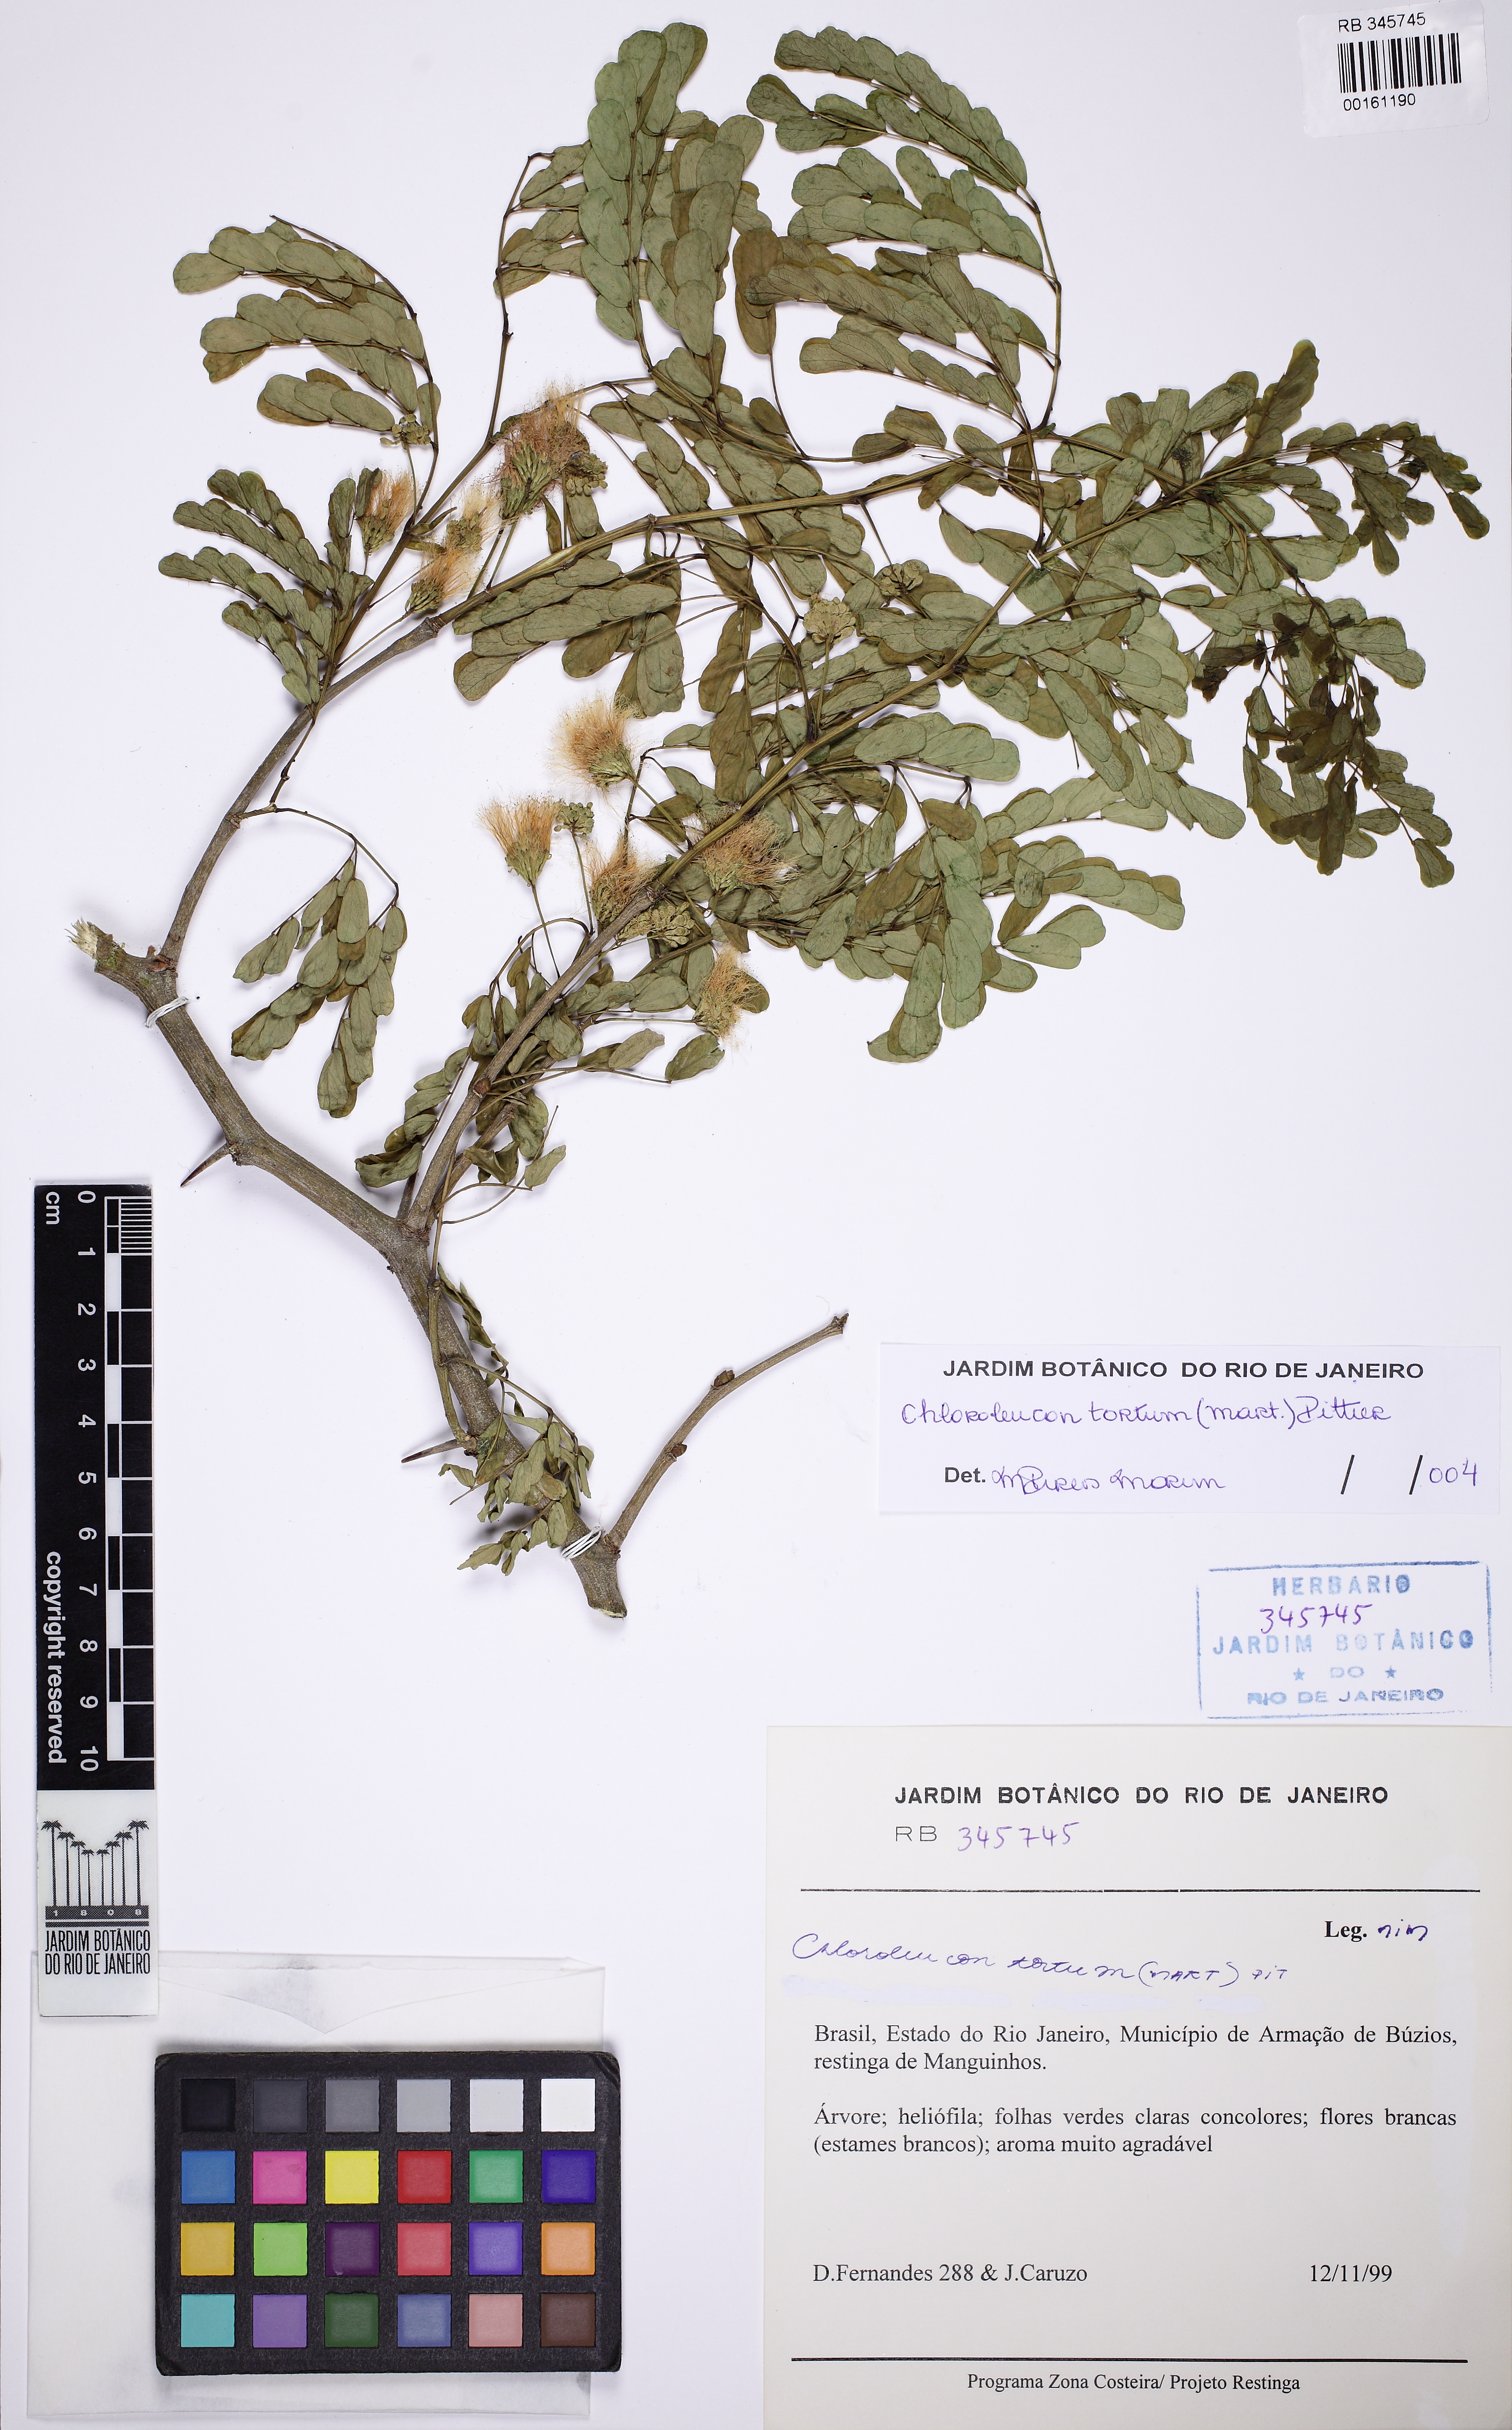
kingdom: Plantae
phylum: Tracheophyta
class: Magnoliopsida
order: Fabales
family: Fabaceae
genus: Chloroleucon
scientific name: Chloroleucon tortum
